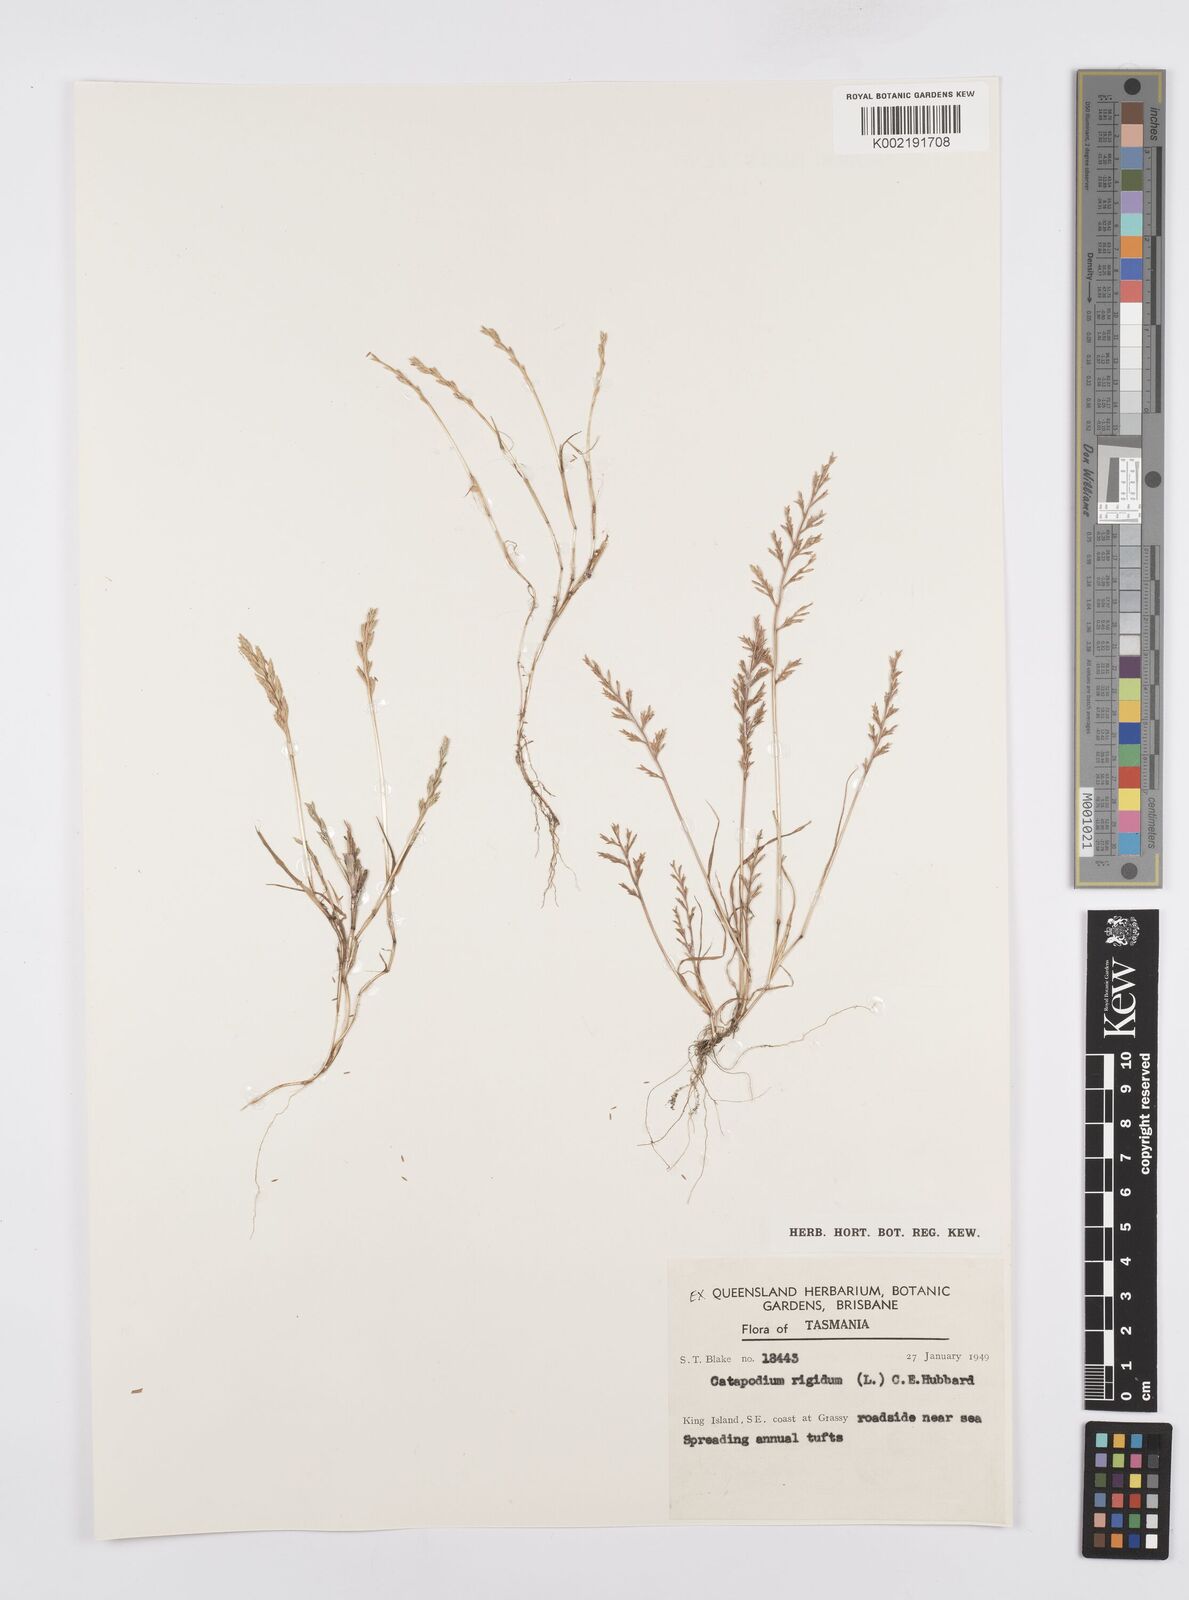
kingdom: Plantae
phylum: Tracheophyta
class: Liliopsida
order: Poales
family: Poaceae
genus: Catapodium
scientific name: Catapodium rigidum
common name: Fern-grass
